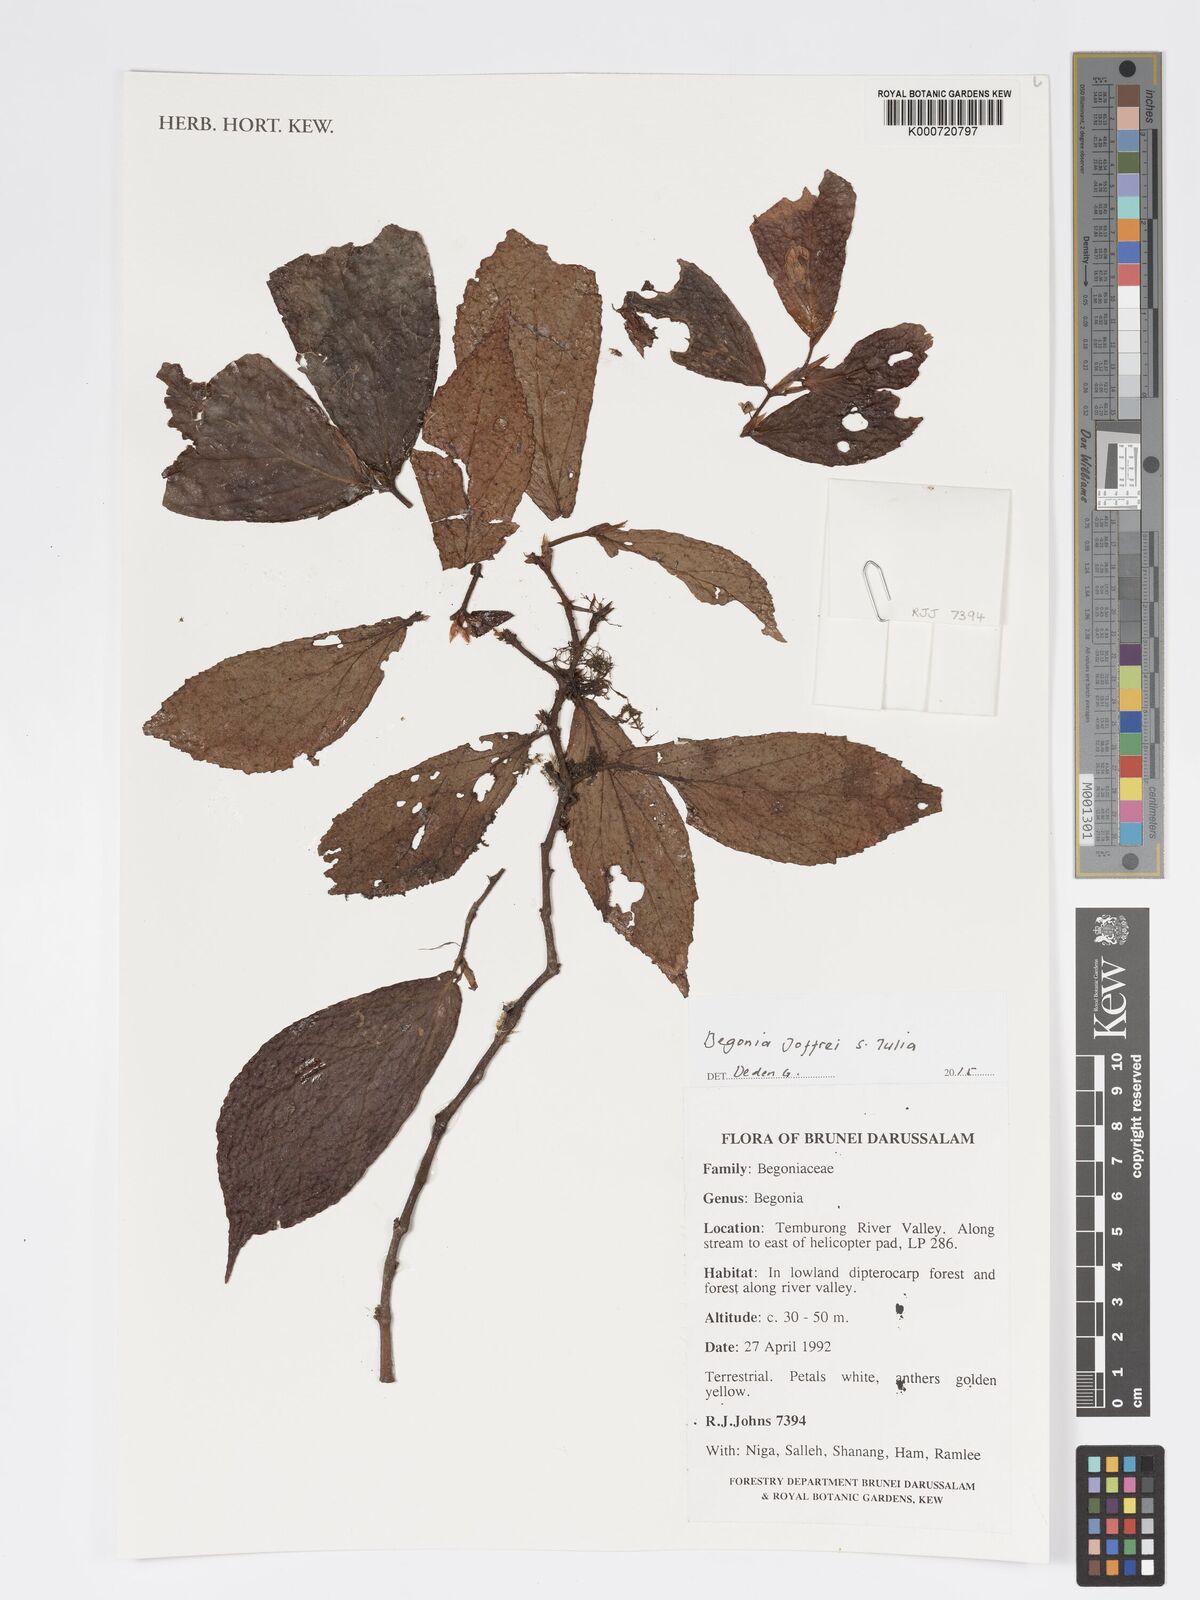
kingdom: Plantae
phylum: Tracheophyta
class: Magnoliopsida
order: Cucurbitales
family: Begoniaceae
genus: Begonia
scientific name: Begonia joffrei
